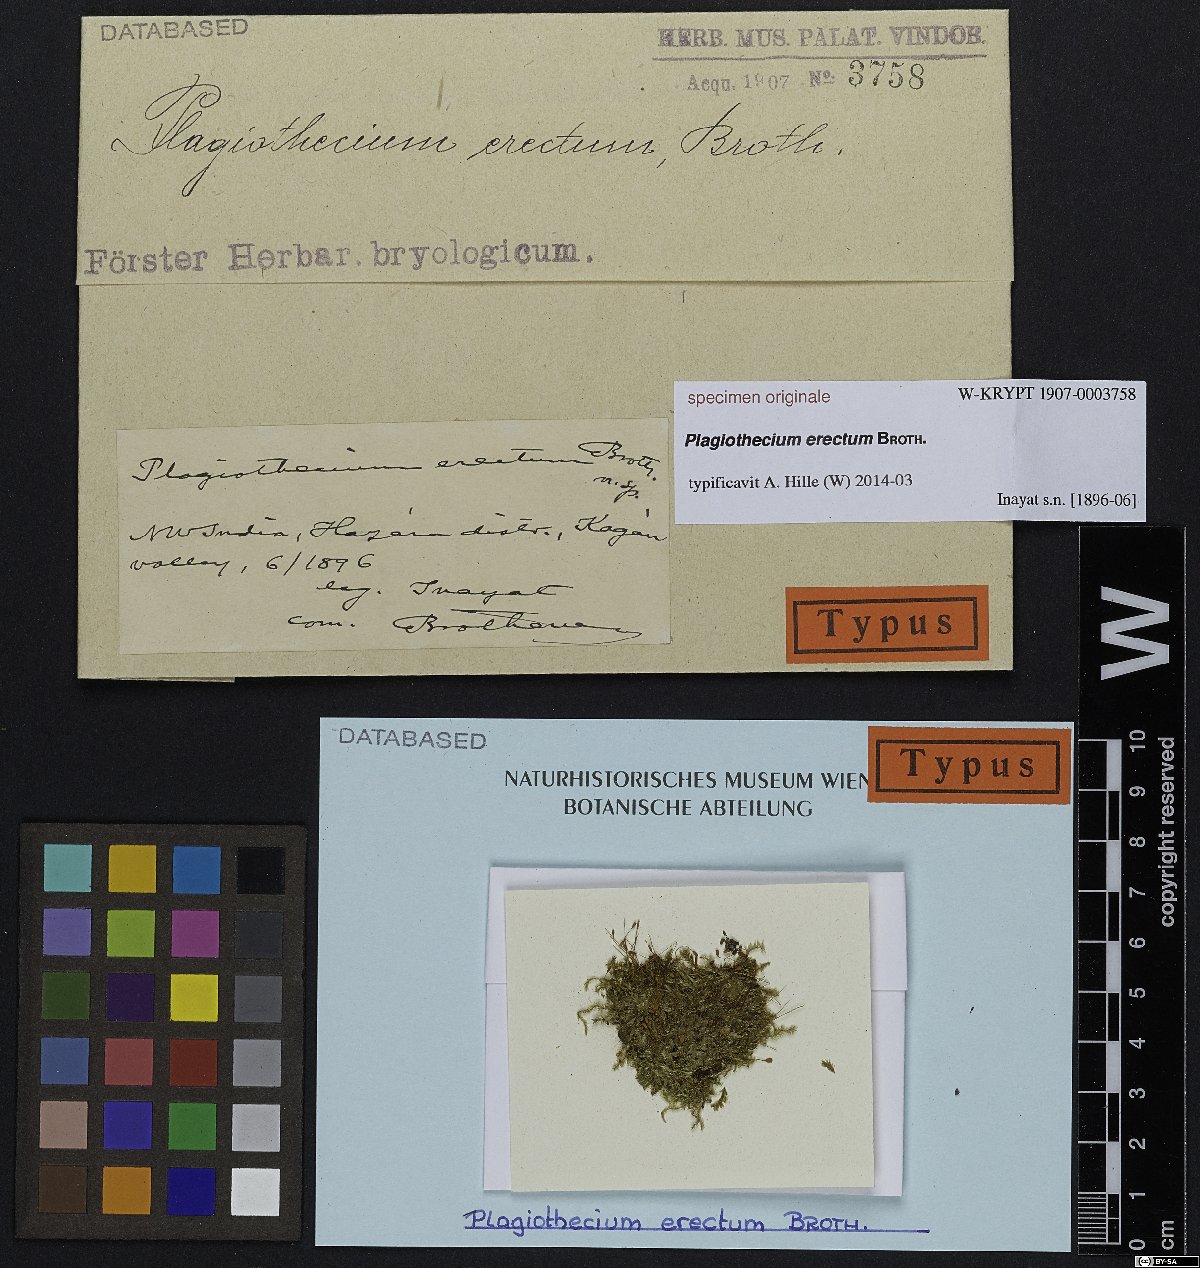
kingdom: Plantae
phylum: Bryophyta
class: Bryopsida
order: Hypnales
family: Plagiotheciaceae
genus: Plagiothecium
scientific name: Plagiothecium
